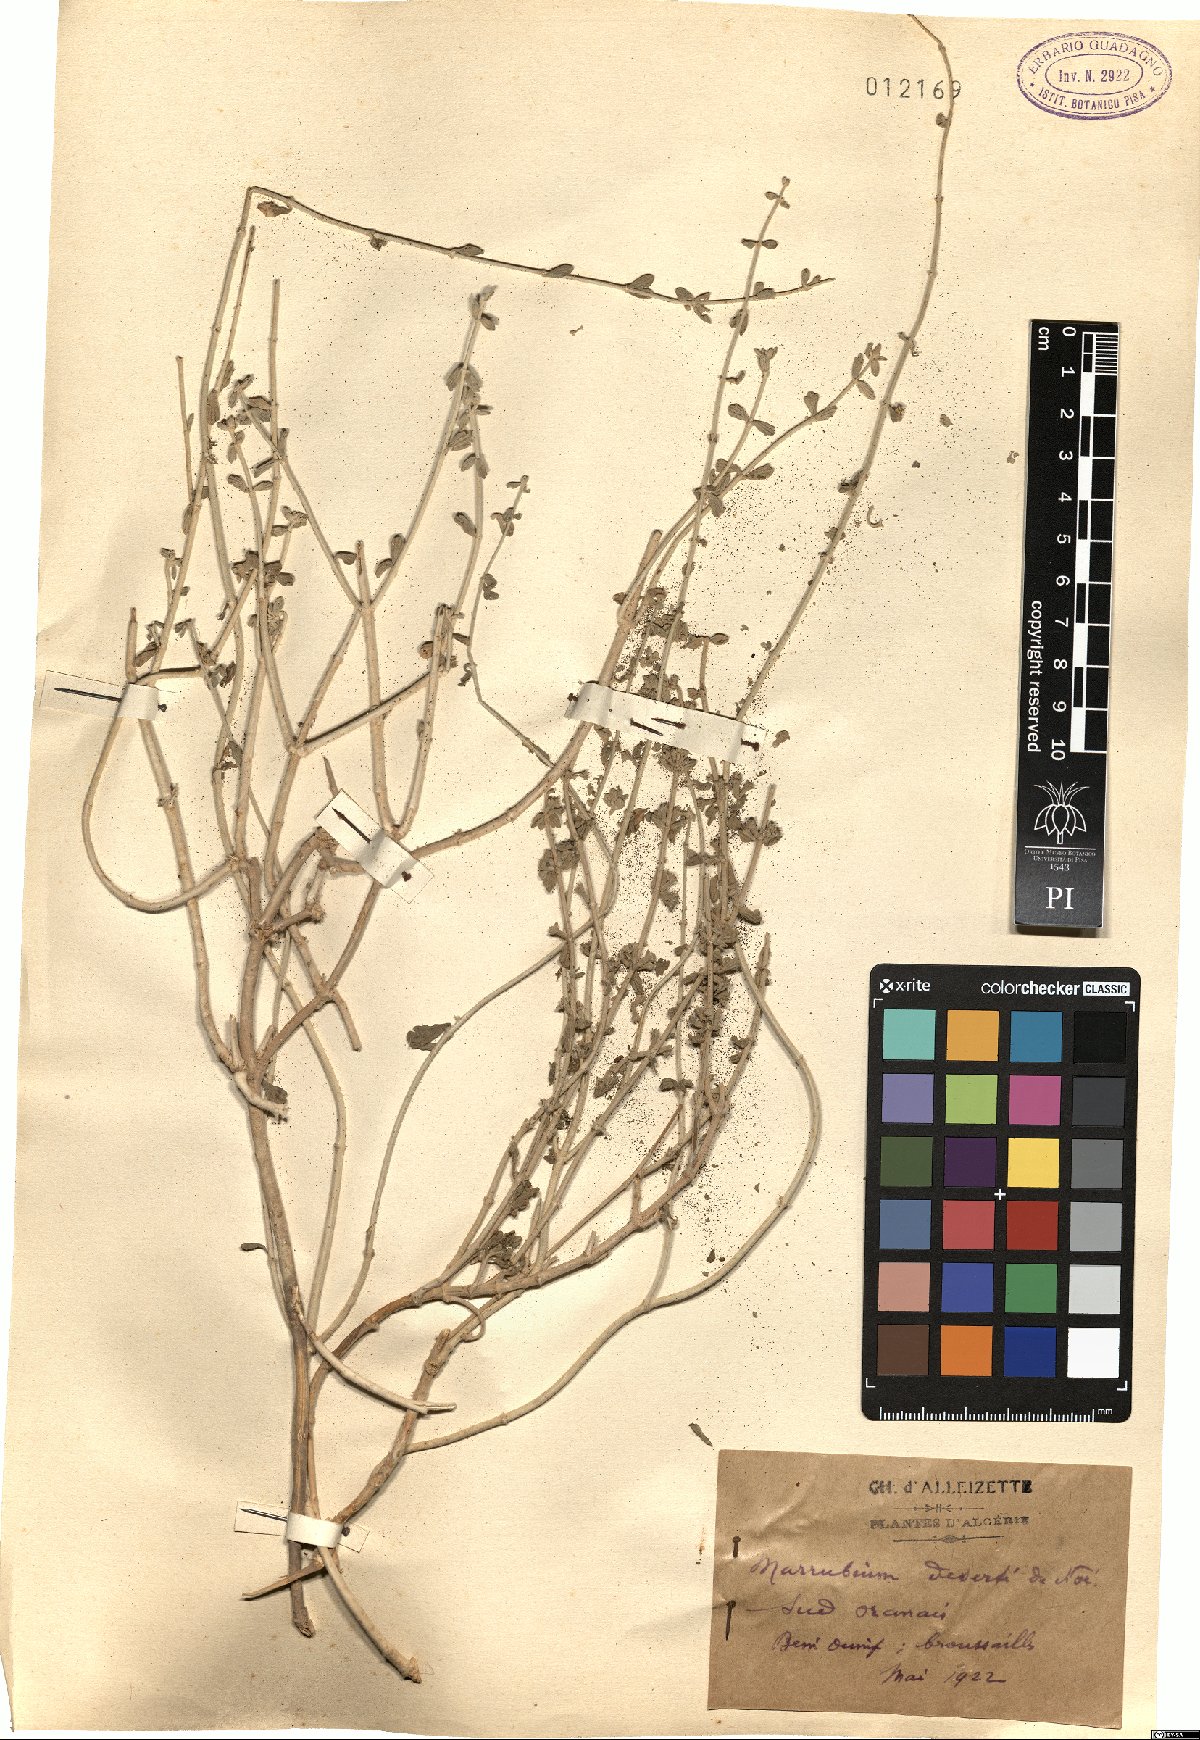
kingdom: Plantae
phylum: Tracheophyta
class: Magnoliopsida
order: Lamiales
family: Lamiaceae
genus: Marrubium
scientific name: Marrubium deserti
